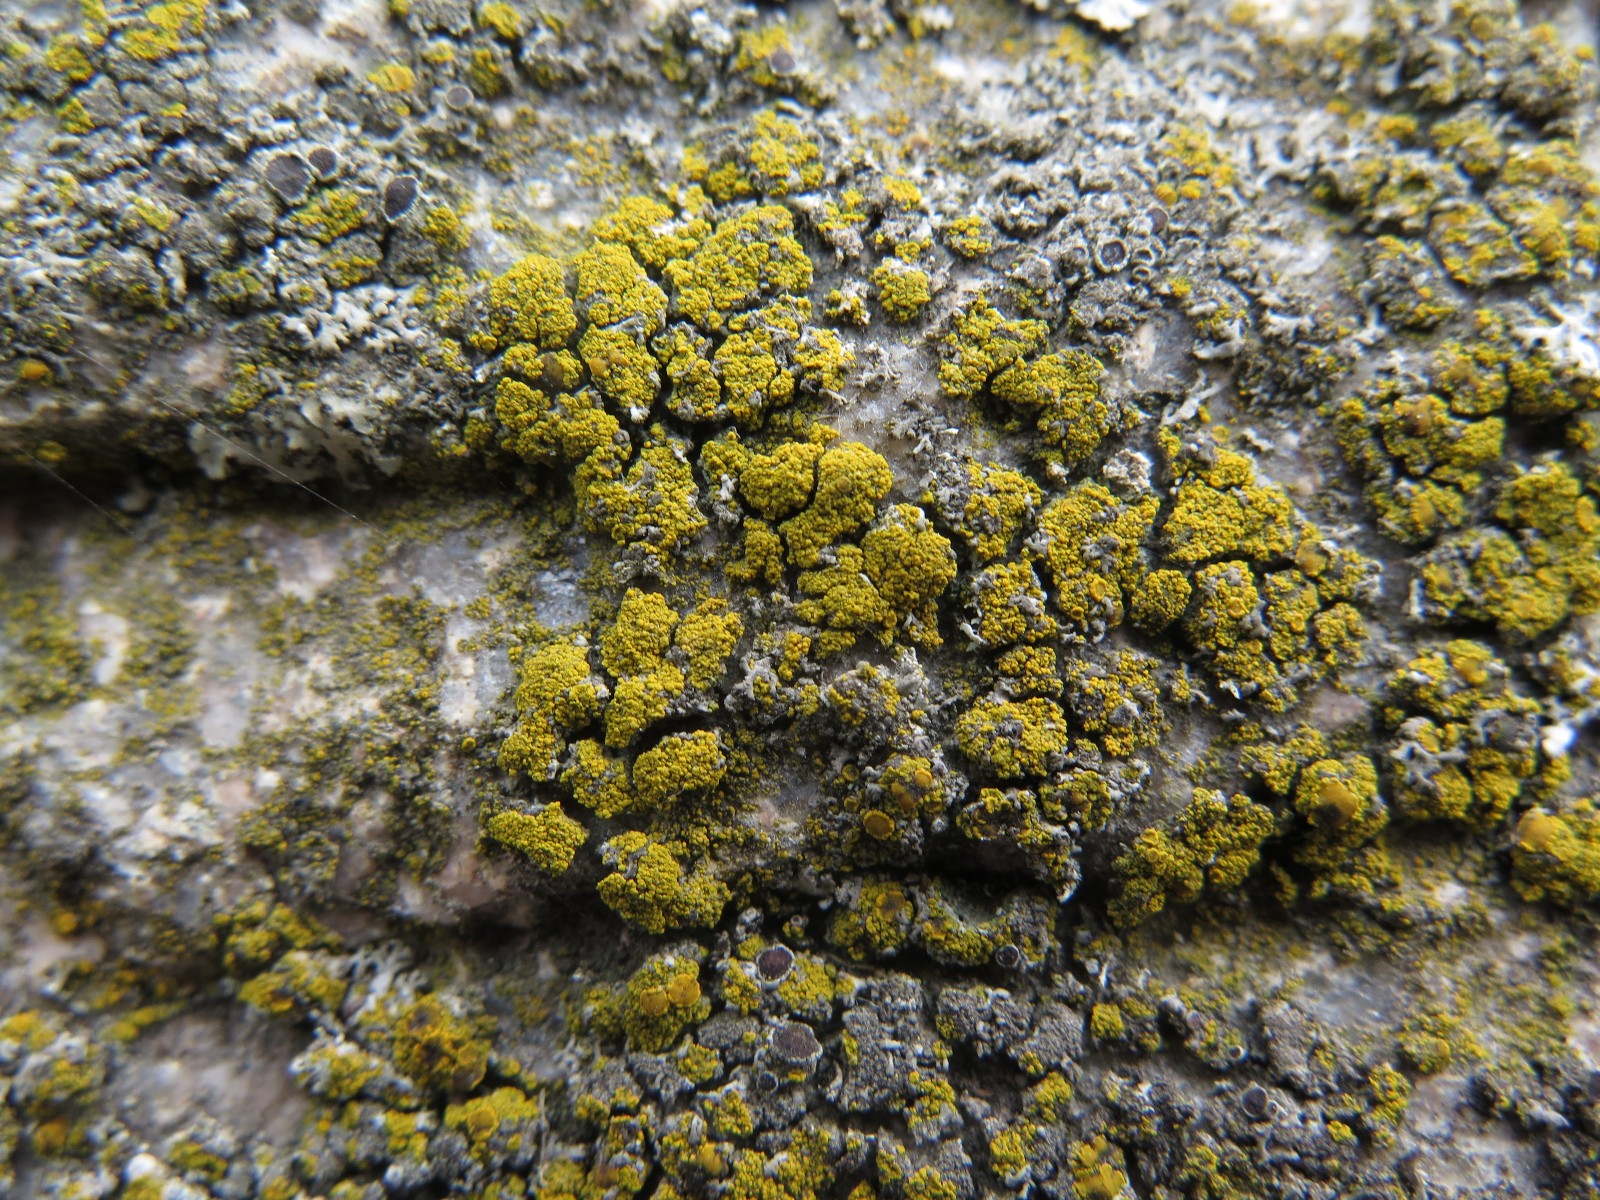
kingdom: Fungi
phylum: Ascomycota
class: Candelariomycetes
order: Candelariales
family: Candelariaceae
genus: Candelariella
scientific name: Candelariella vitellina
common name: almindelig æggeblommelav
